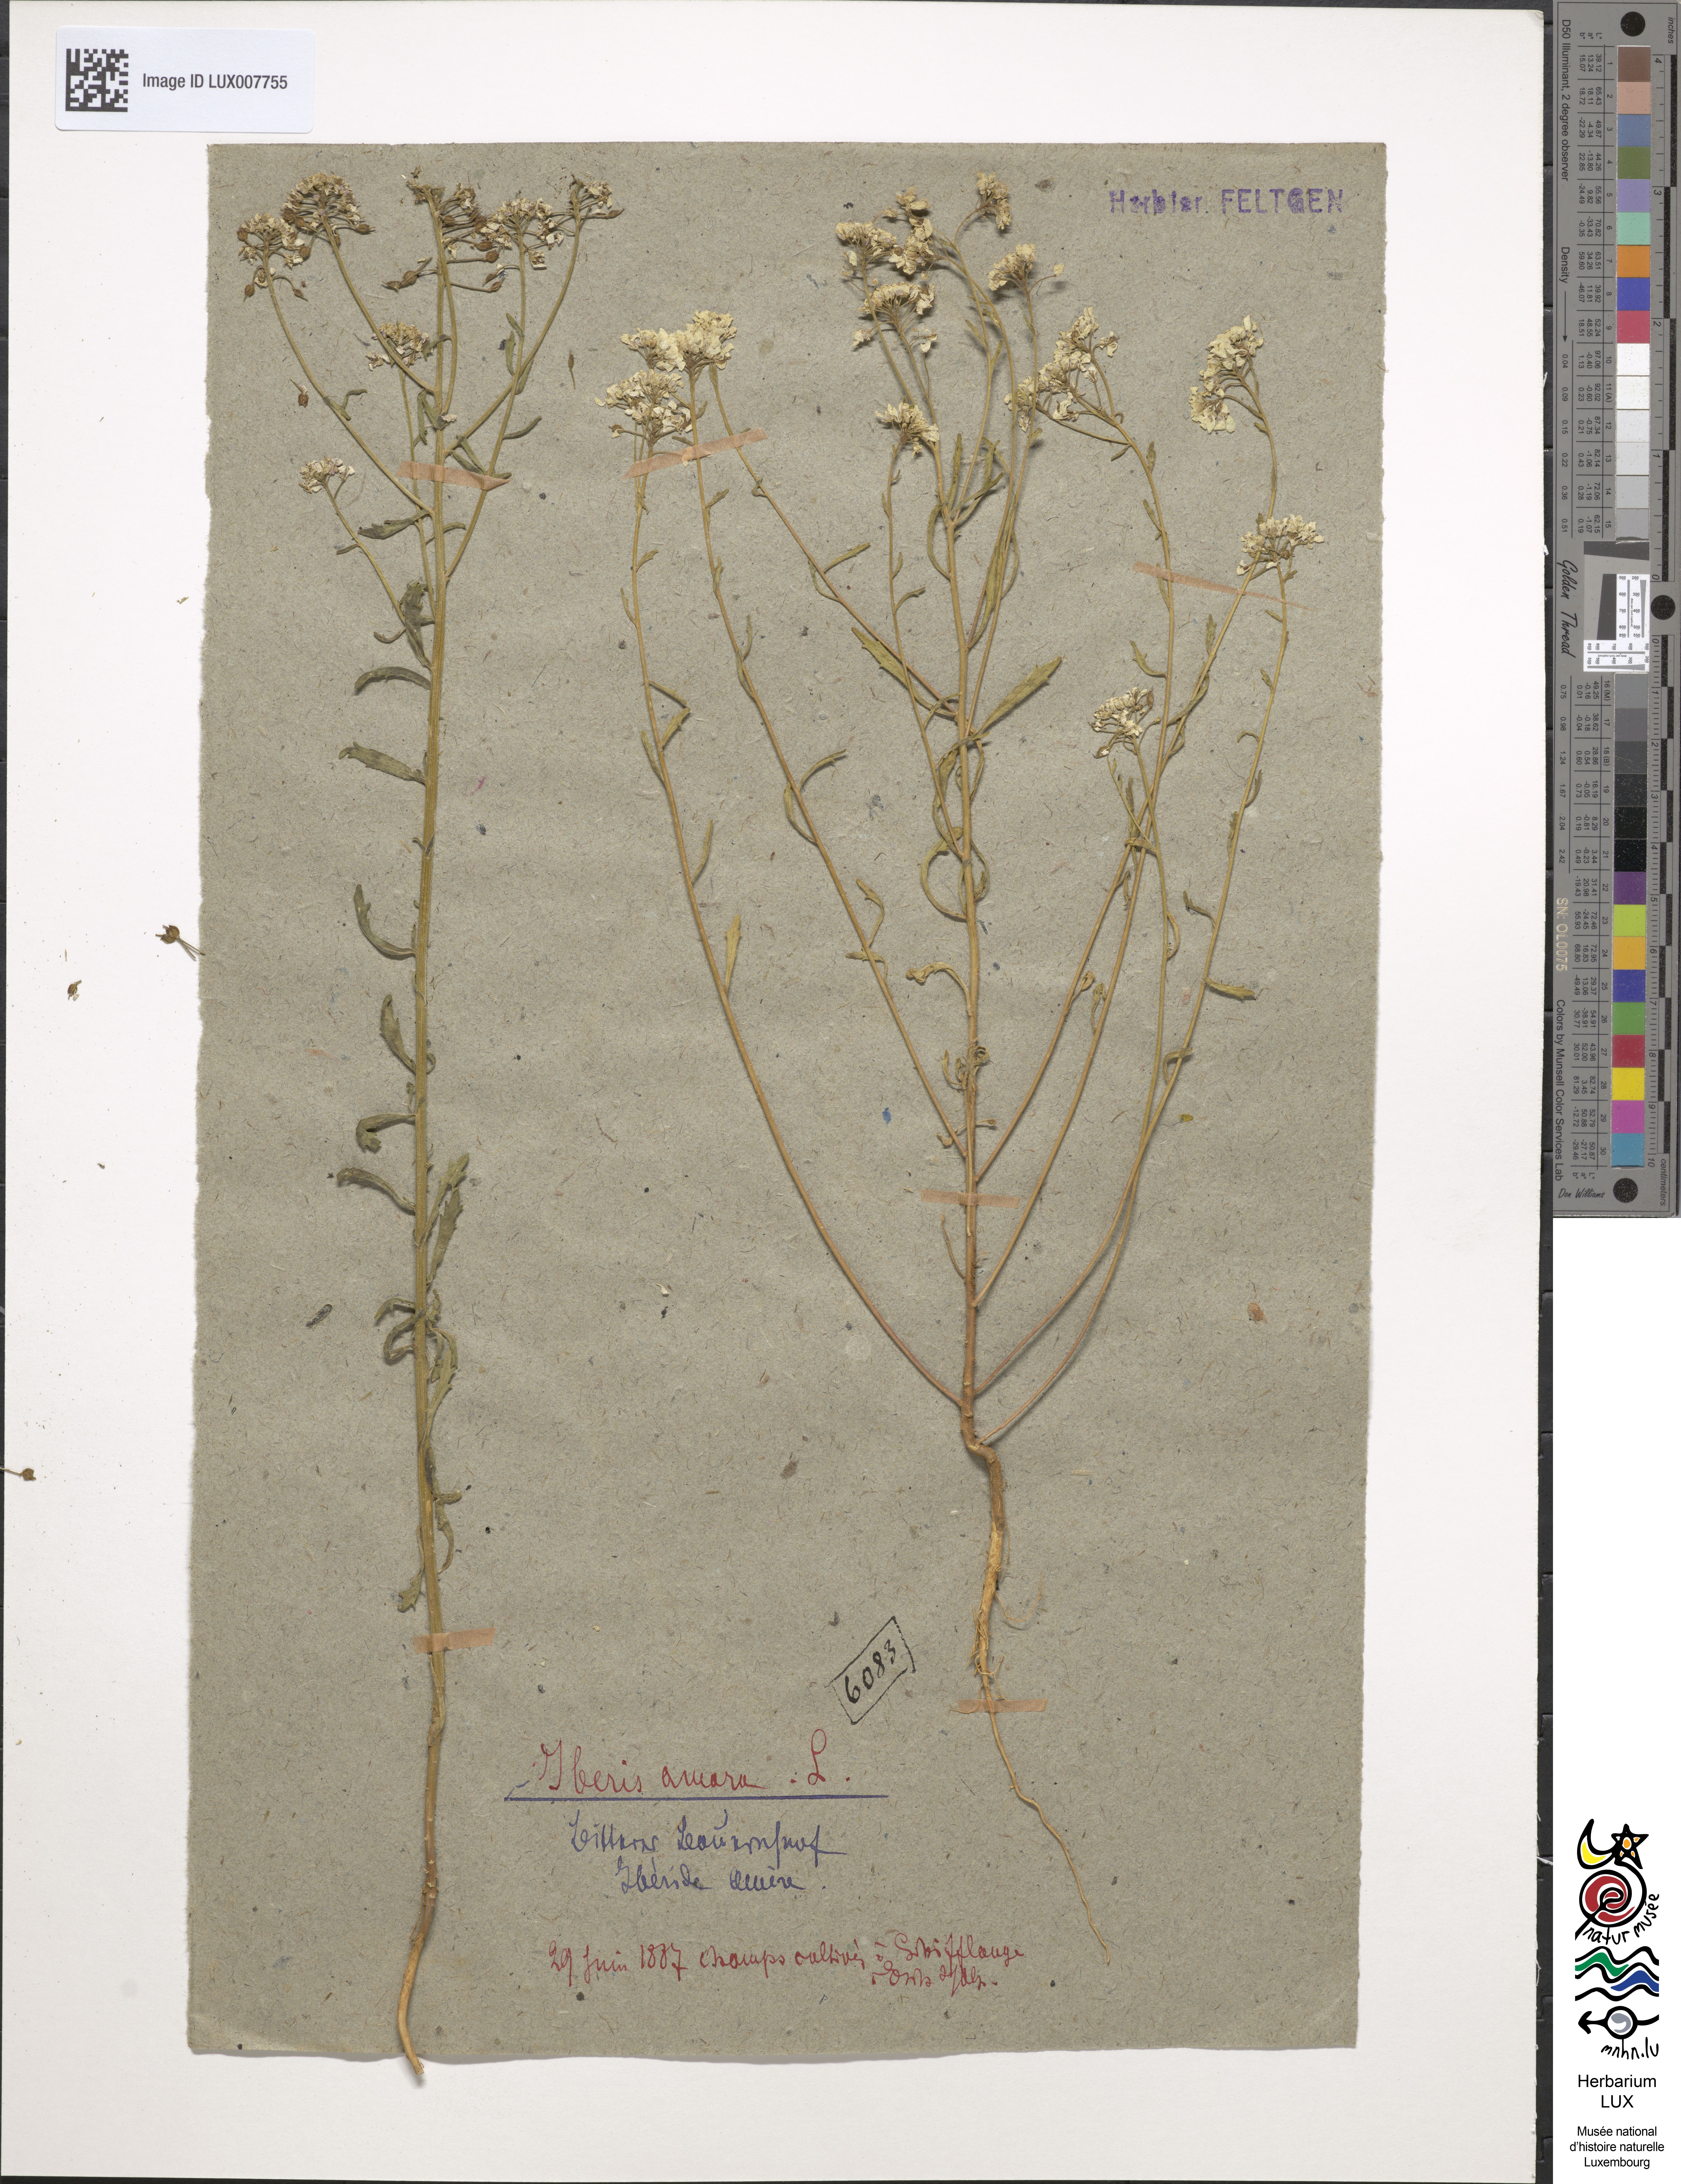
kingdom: Plantae
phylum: Tracheophyta
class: Magnoliopsida
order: Brassicales
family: Brassicaceae
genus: Iberis
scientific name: Iberis amara
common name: Annual candytuft
